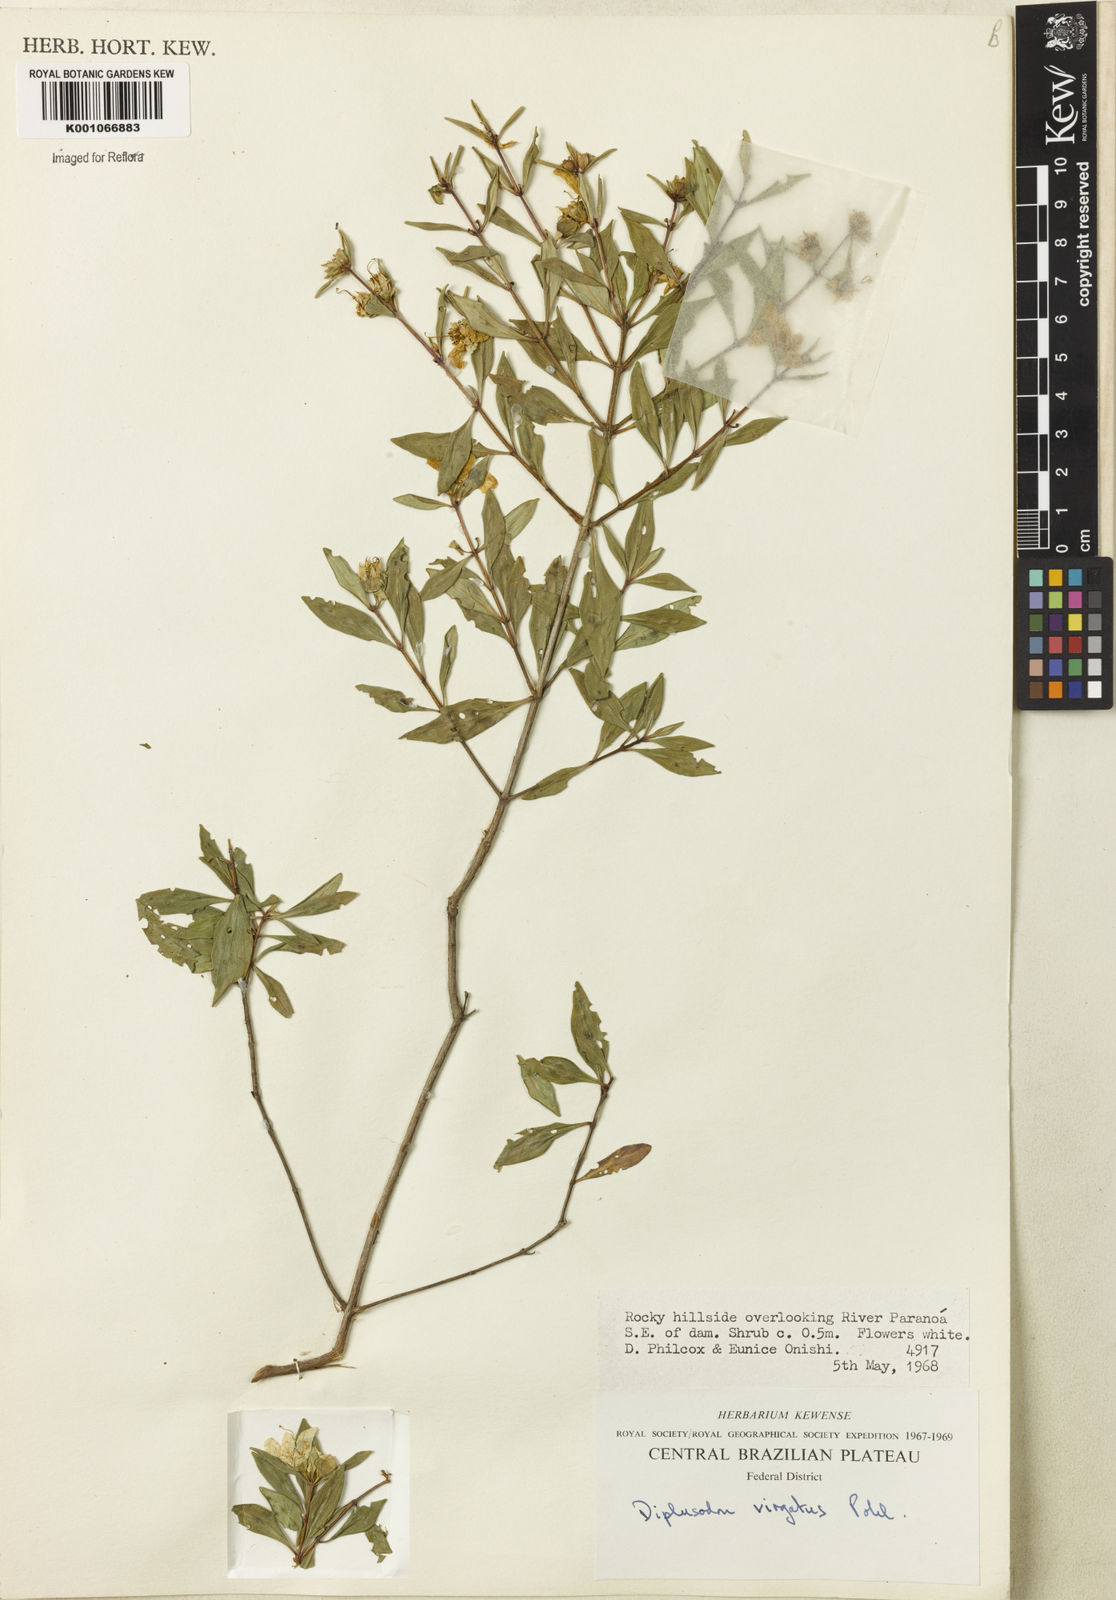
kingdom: Plantae
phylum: Tracheophyta
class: Magnoliopsida
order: Myrtales
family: Lythraceae
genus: Diplusodon
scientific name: Diplusodon virgatus
